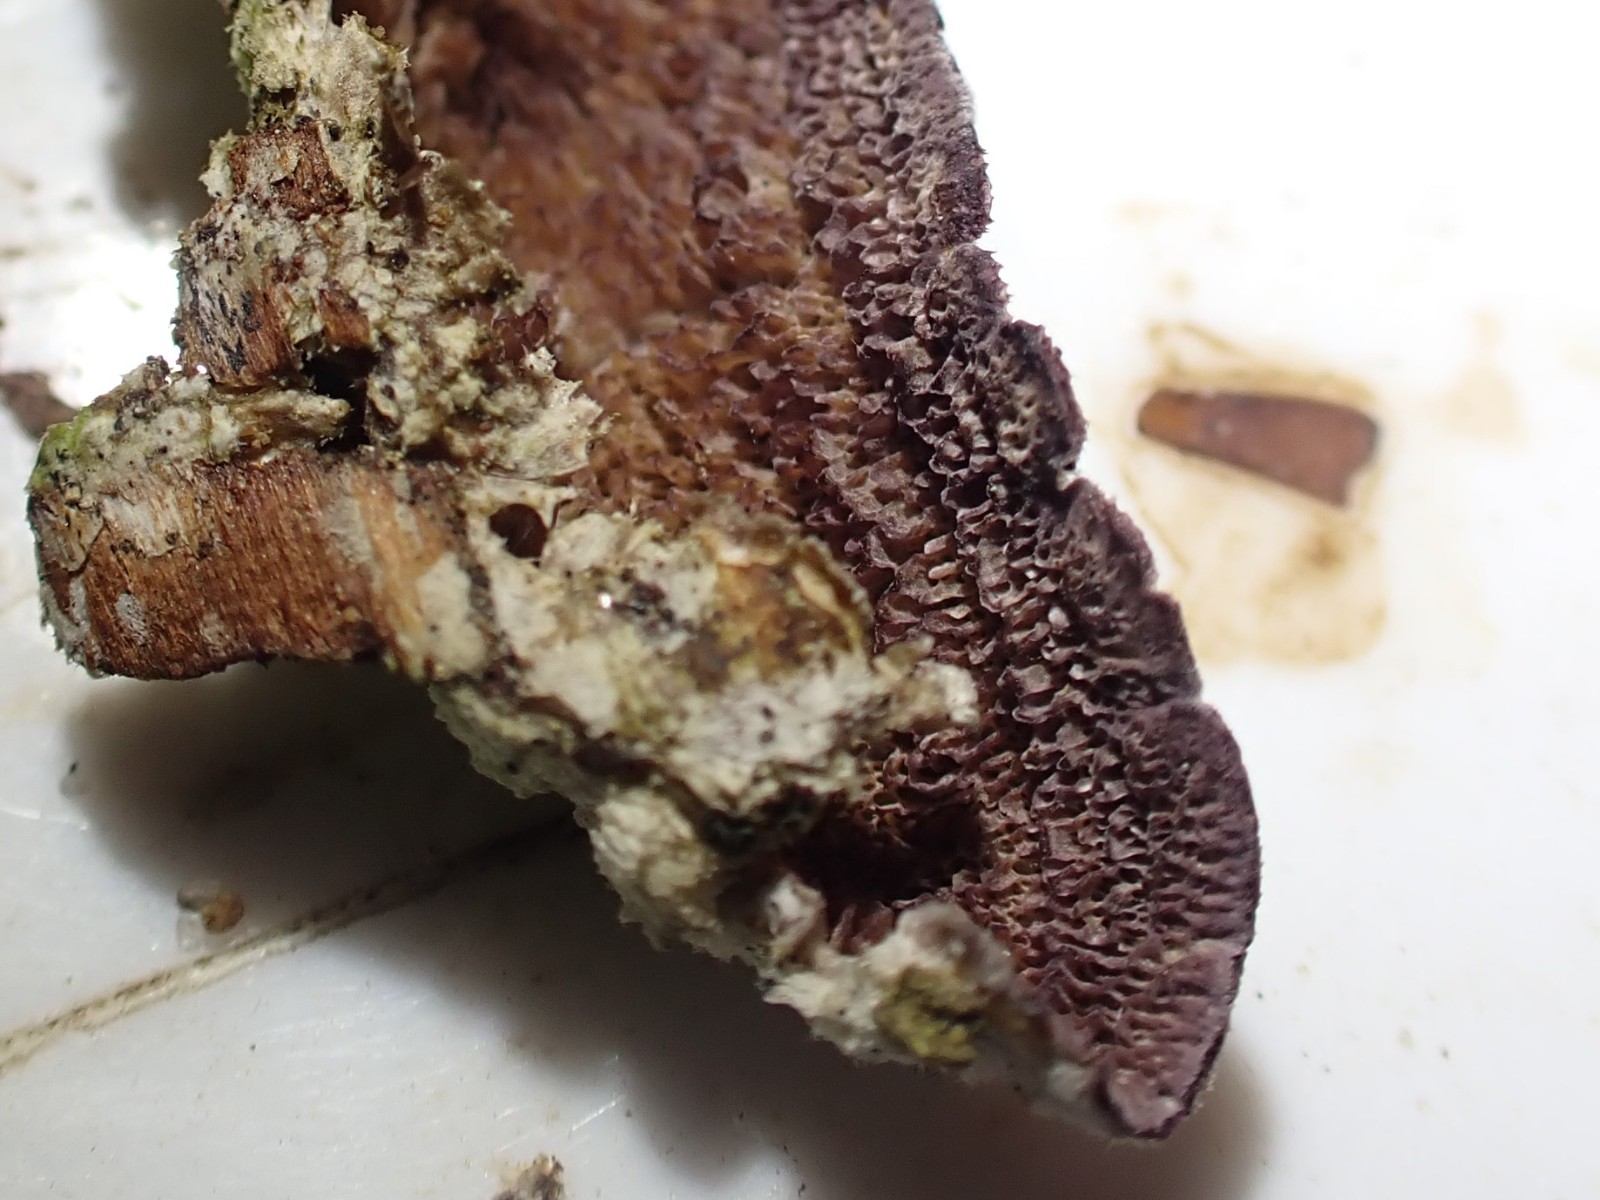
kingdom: Fungi
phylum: Basidiomycota
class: Agaricomycetes
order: Hymenochaetales
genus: Trichaptum
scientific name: Trichaptum fuscoviolaceum
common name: tandet violporesvamp
